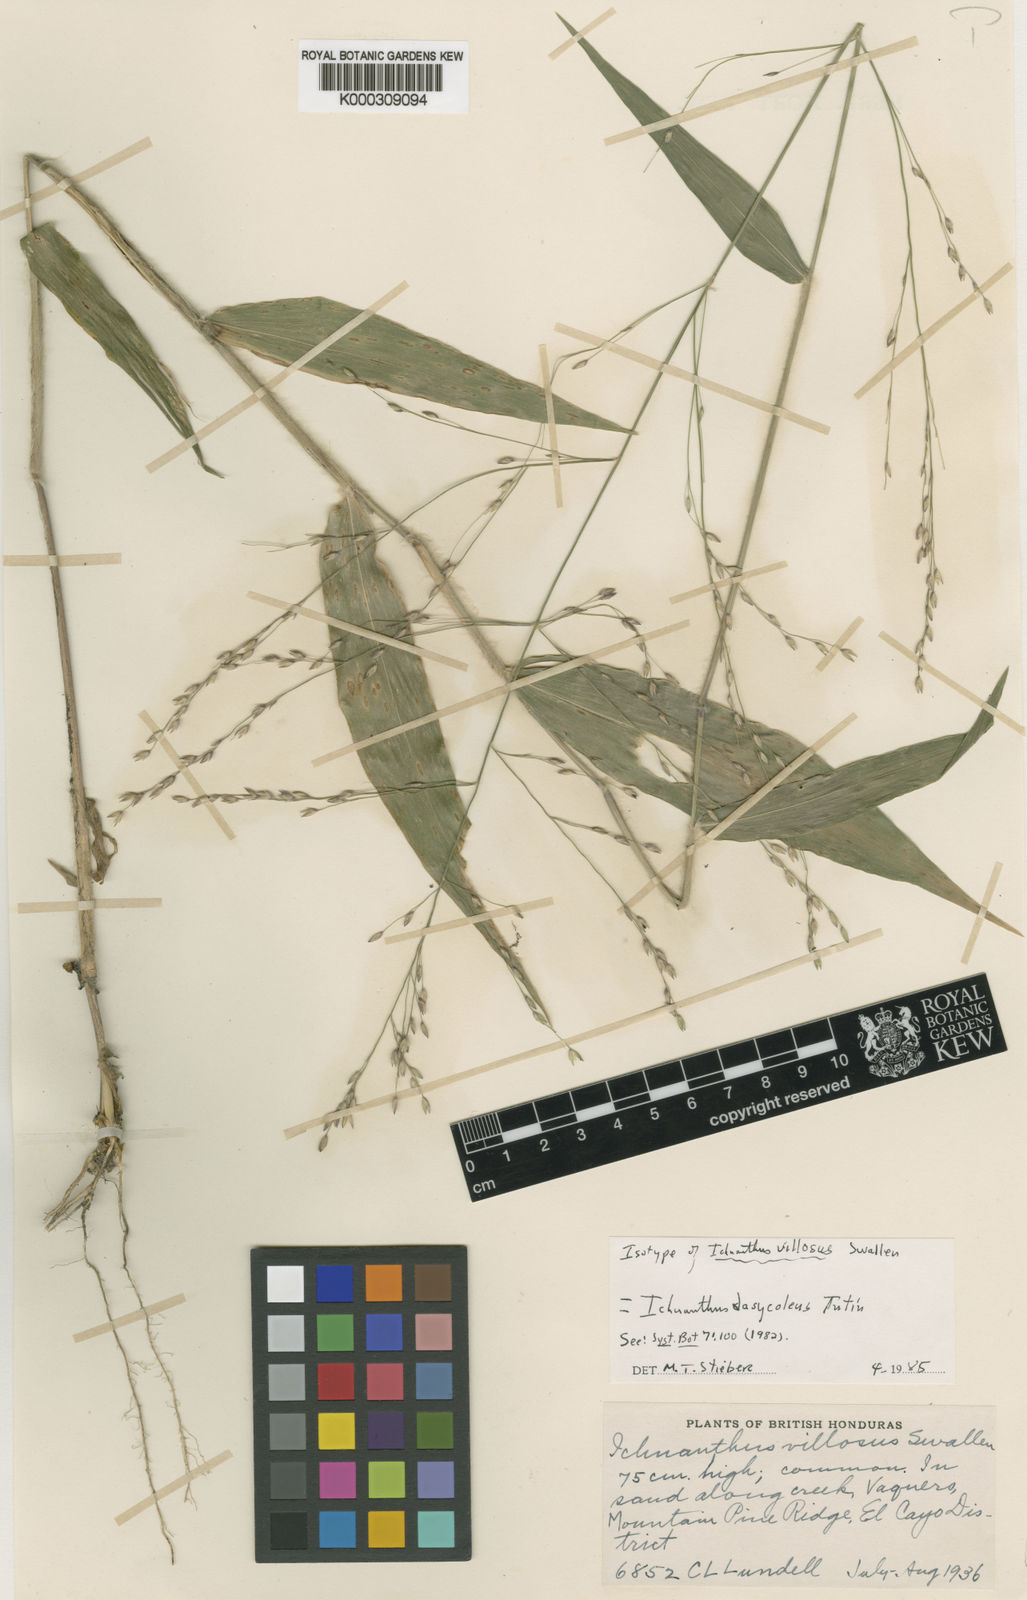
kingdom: Plantae
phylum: Tracheophyta
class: Liliopsida
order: Poales
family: Poaceae
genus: Ichnanthus
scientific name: Ichnanthus dasycoleus
